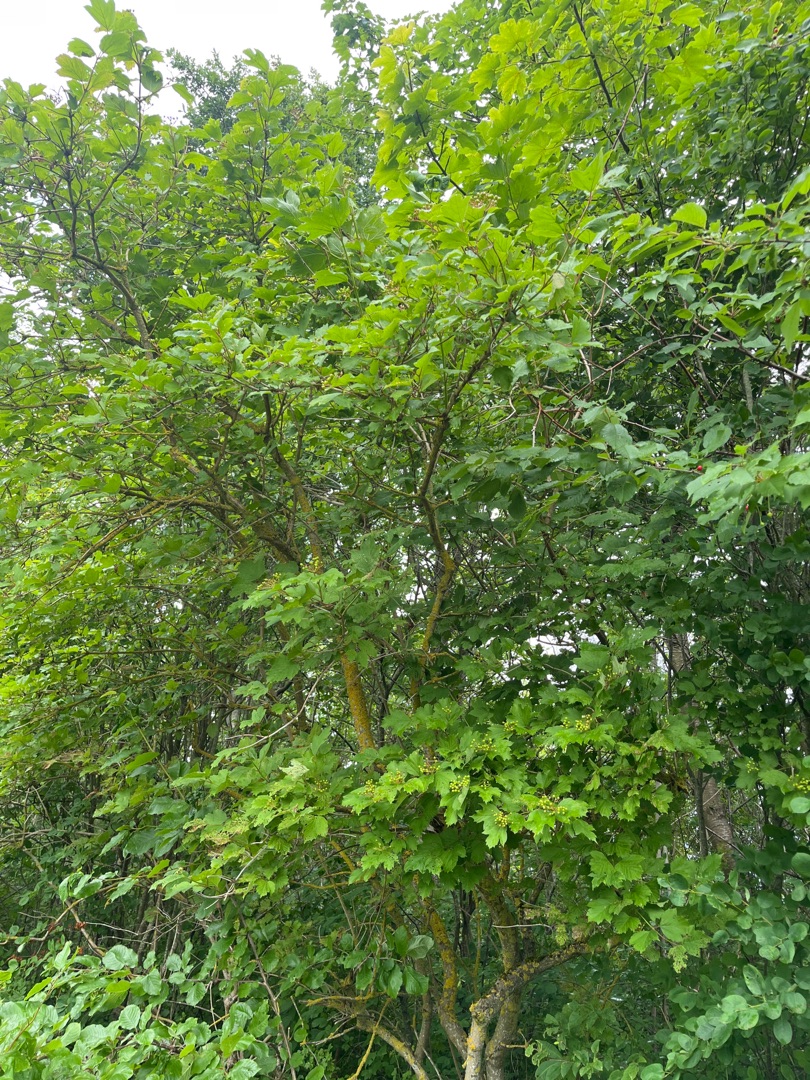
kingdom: Plantae
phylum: Tracheophyta
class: Magnoliopsida
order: Dipsacales
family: Viburnaceae
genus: Viburnum
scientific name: Viburnum opulus
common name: Kvalkved
